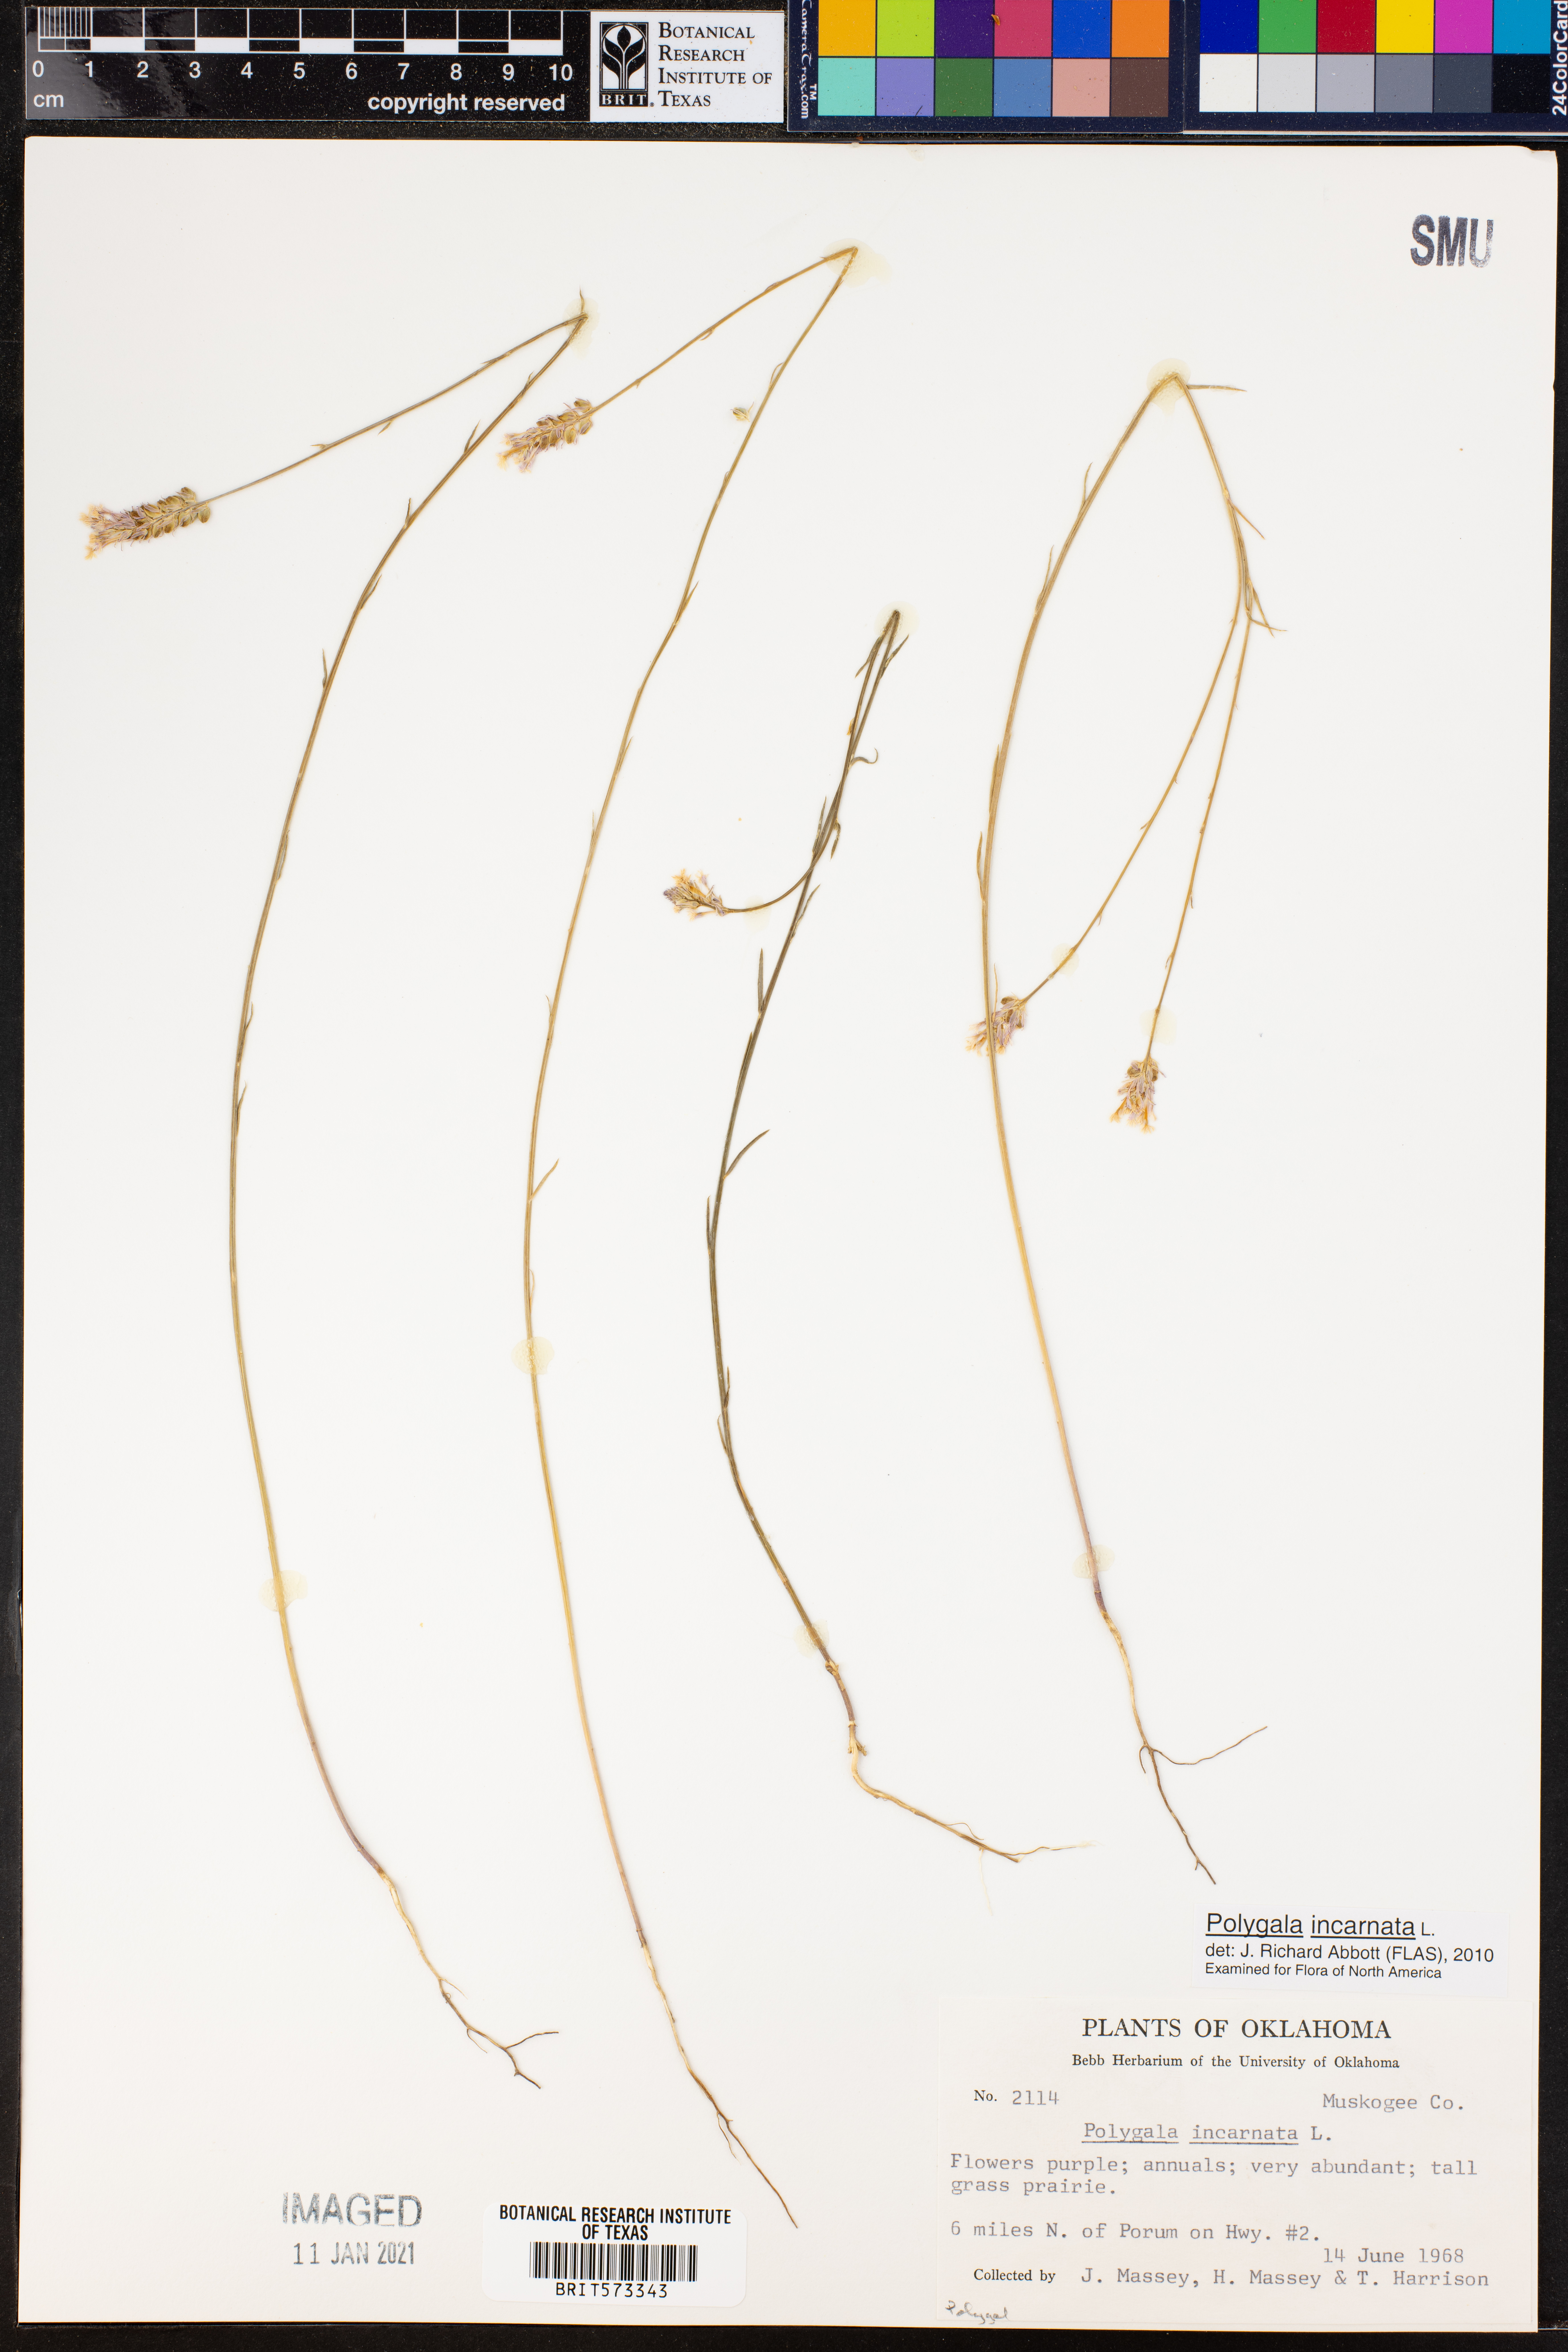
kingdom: Plantae
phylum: Tracheophyta
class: Magnoliopsida
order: Fabales
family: Polygalaceae
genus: Polygala
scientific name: Polygala incarnata
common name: Pink milkwort
